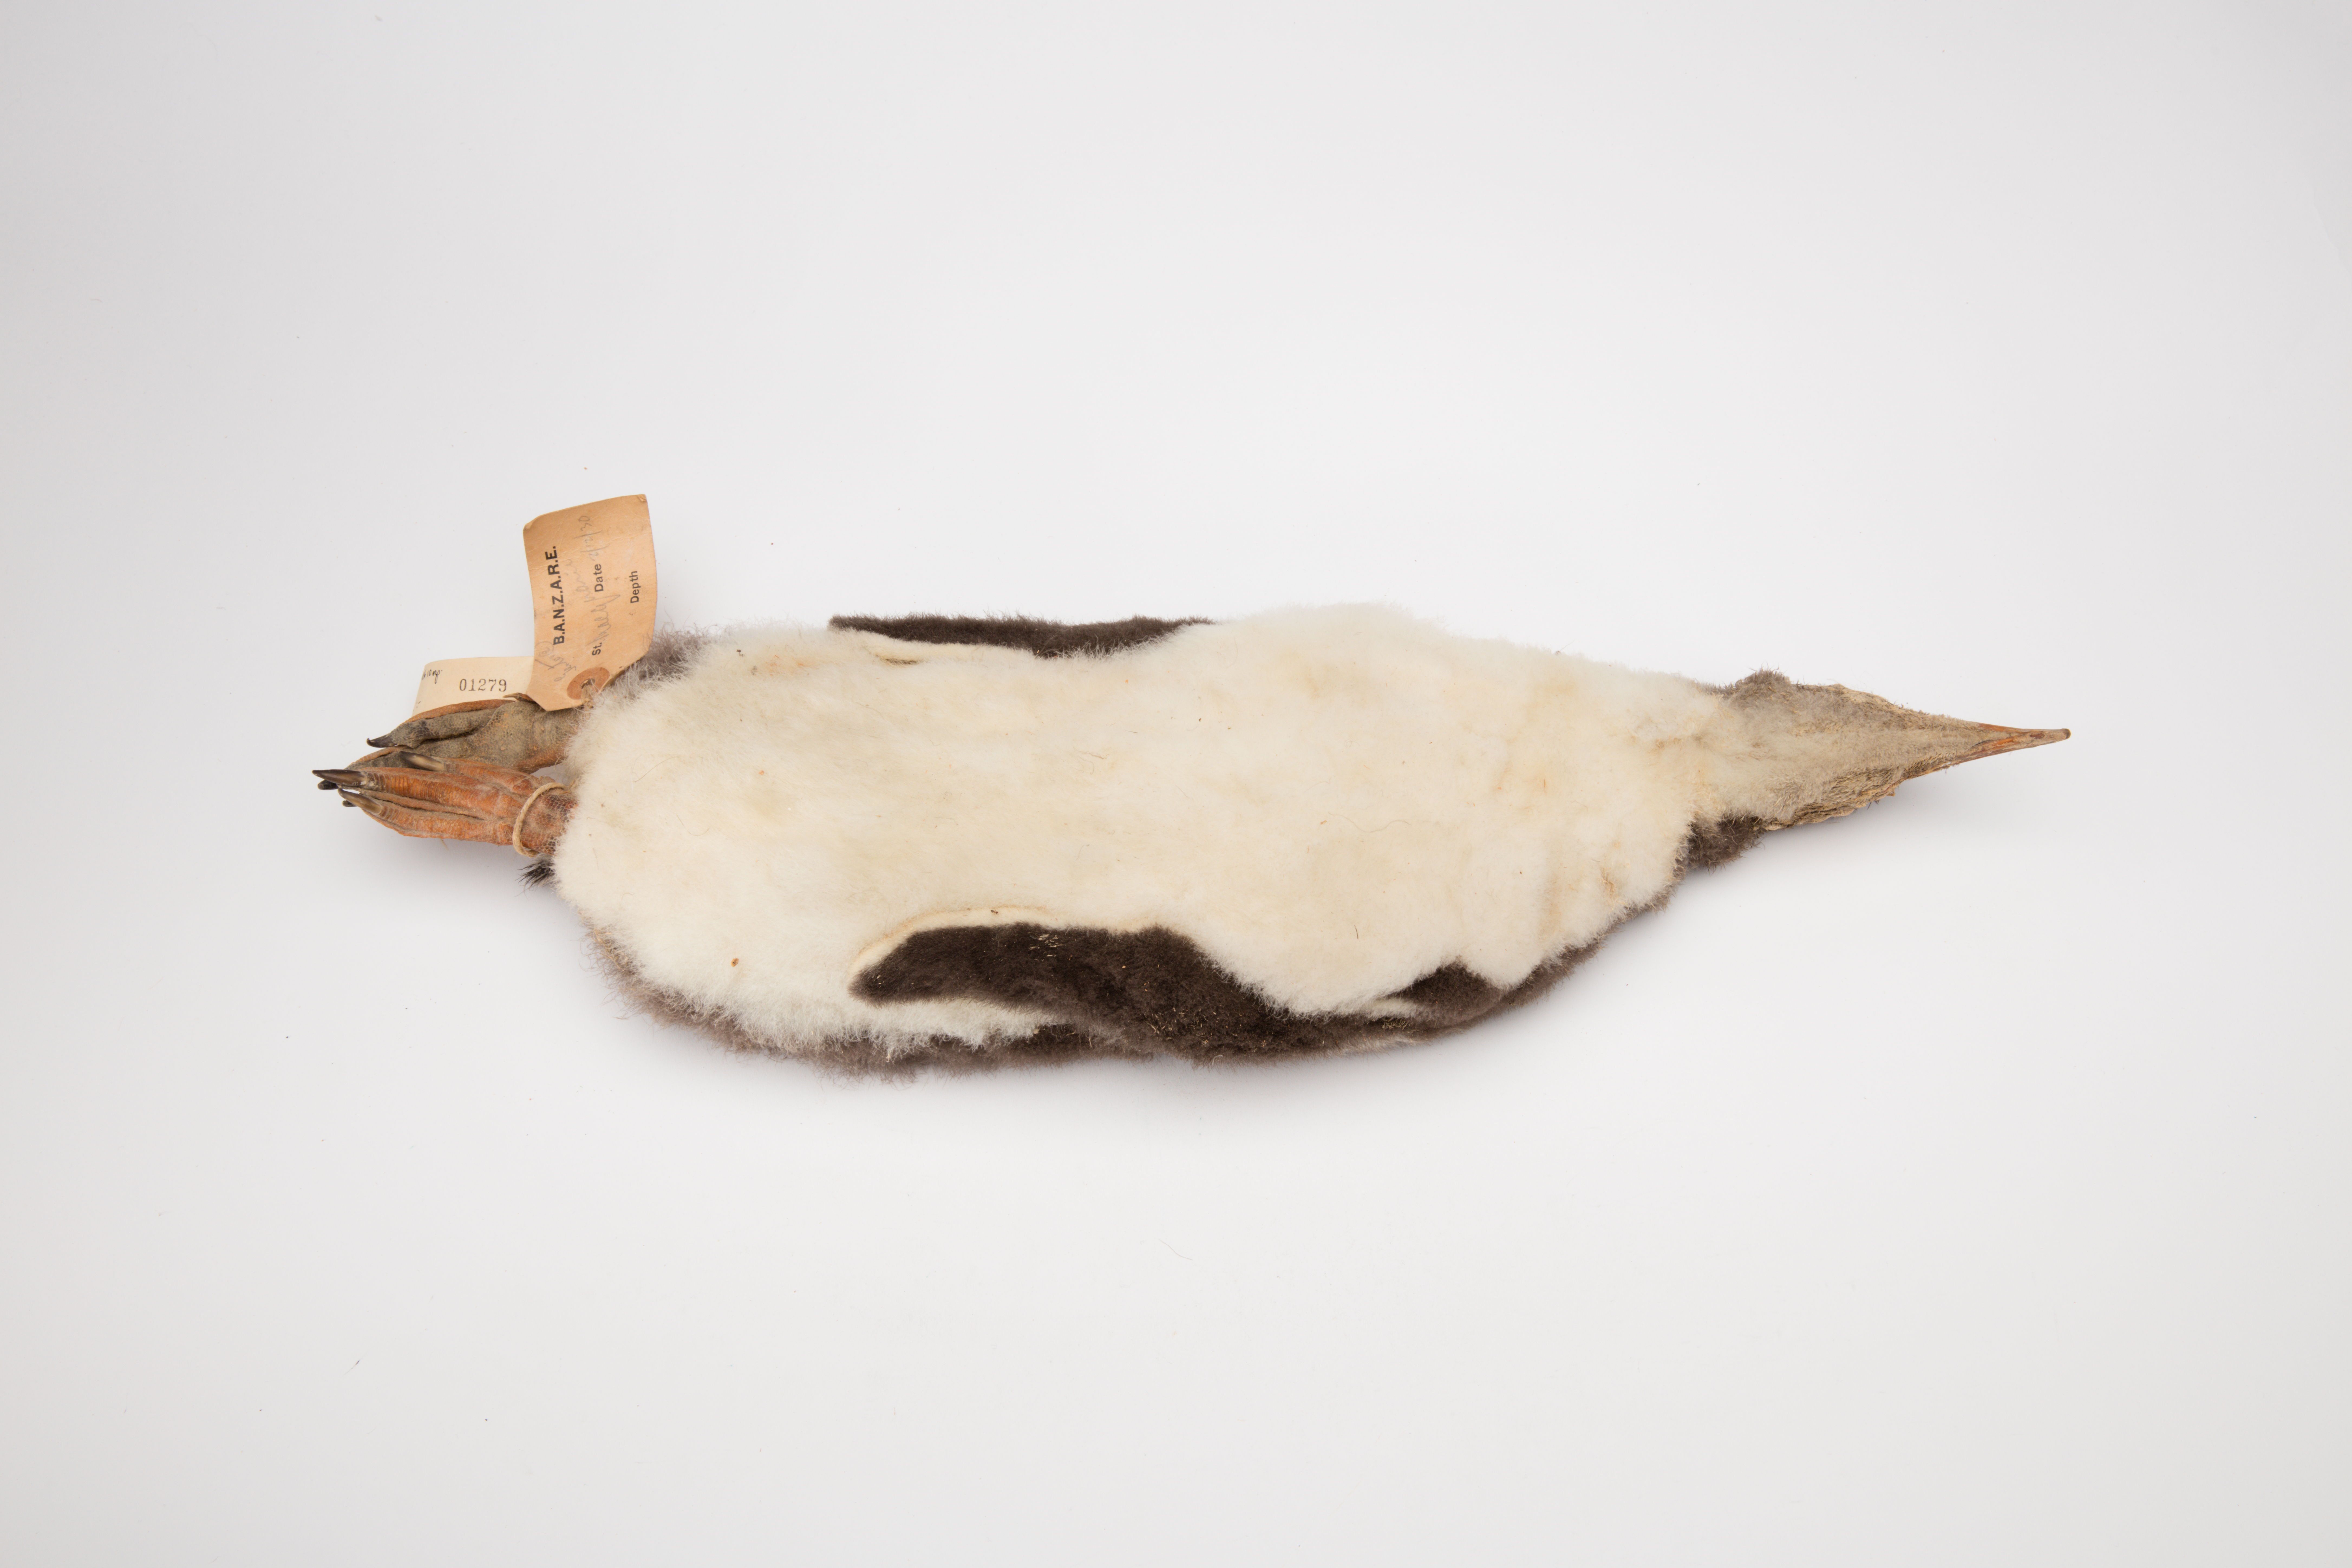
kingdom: Animalia
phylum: Chordata
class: Aves
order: Sphenisciformes
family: Spheniscidae
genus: Pygoscelis
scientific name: Pygoscelis papua
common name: Gentoo penguin
